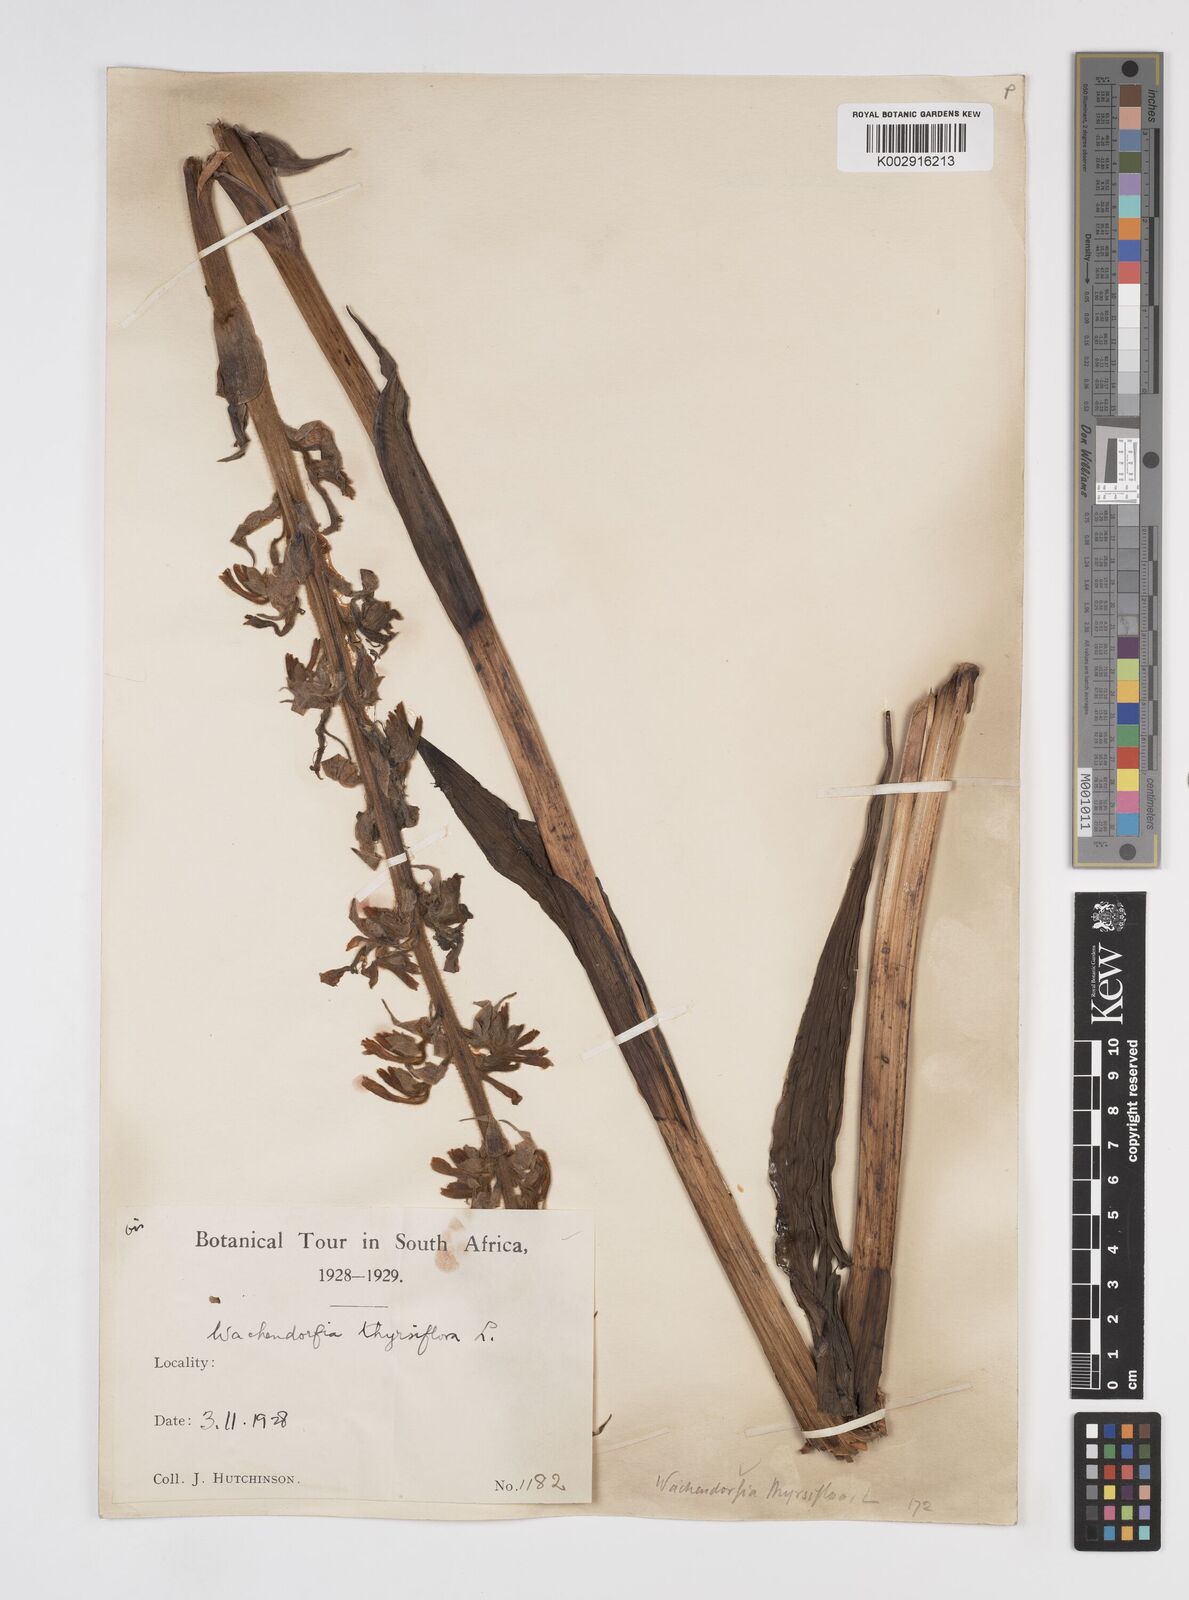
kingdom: Plantae
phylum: Tracheophyta
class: Liliopsida
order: Commelinales
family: Haemodoraceae
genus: Wachendorfia
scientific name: Wachendorfia thyrsiflora
